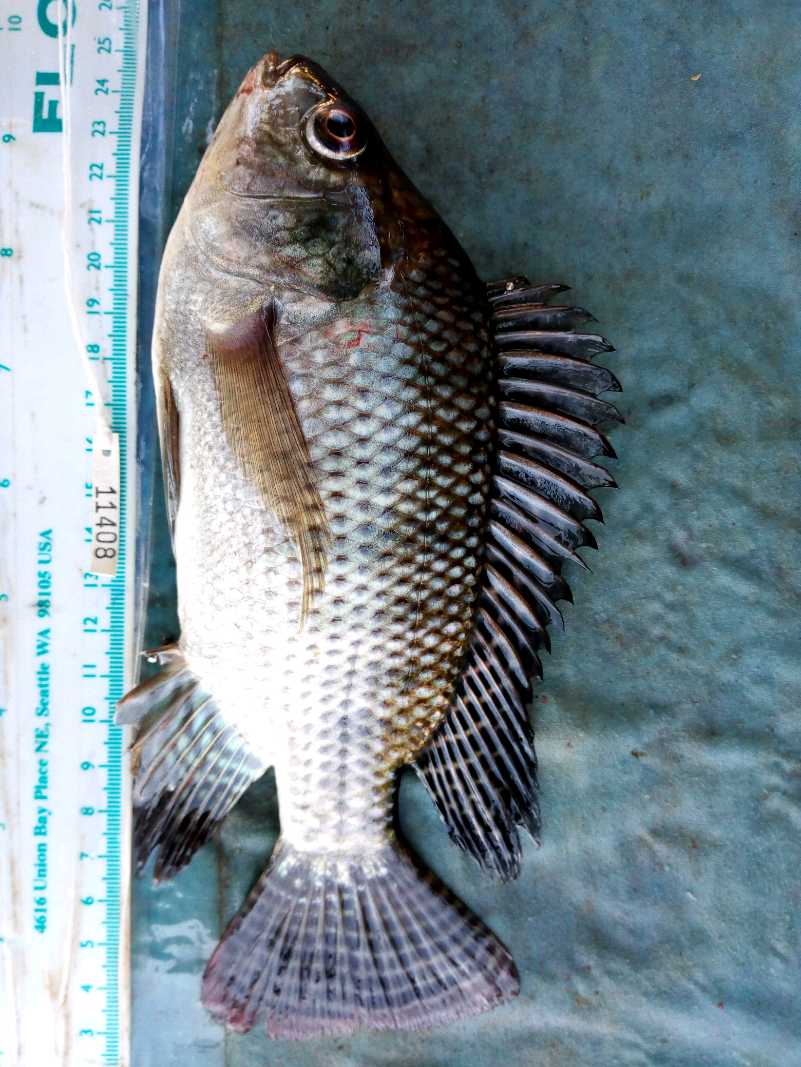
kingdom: Animalia
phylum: Chordata
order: Perciformes
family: Cichlidae
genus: Oreochromis
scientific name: Oreochromis niloticus
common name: Nile tilapia
